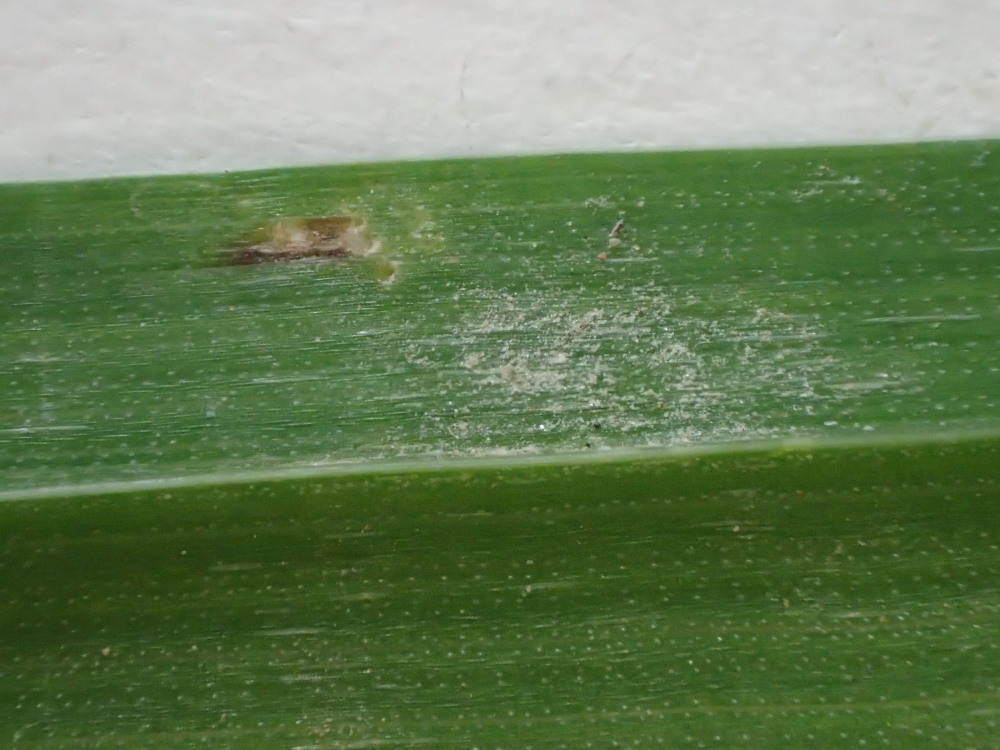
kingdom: Fungi
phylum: Ascomycota
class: Leotiomycetes
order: Helotiales
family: Erysiphaceae
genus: Blumeria
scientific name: Blumeria graminis
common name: græs-meldug
